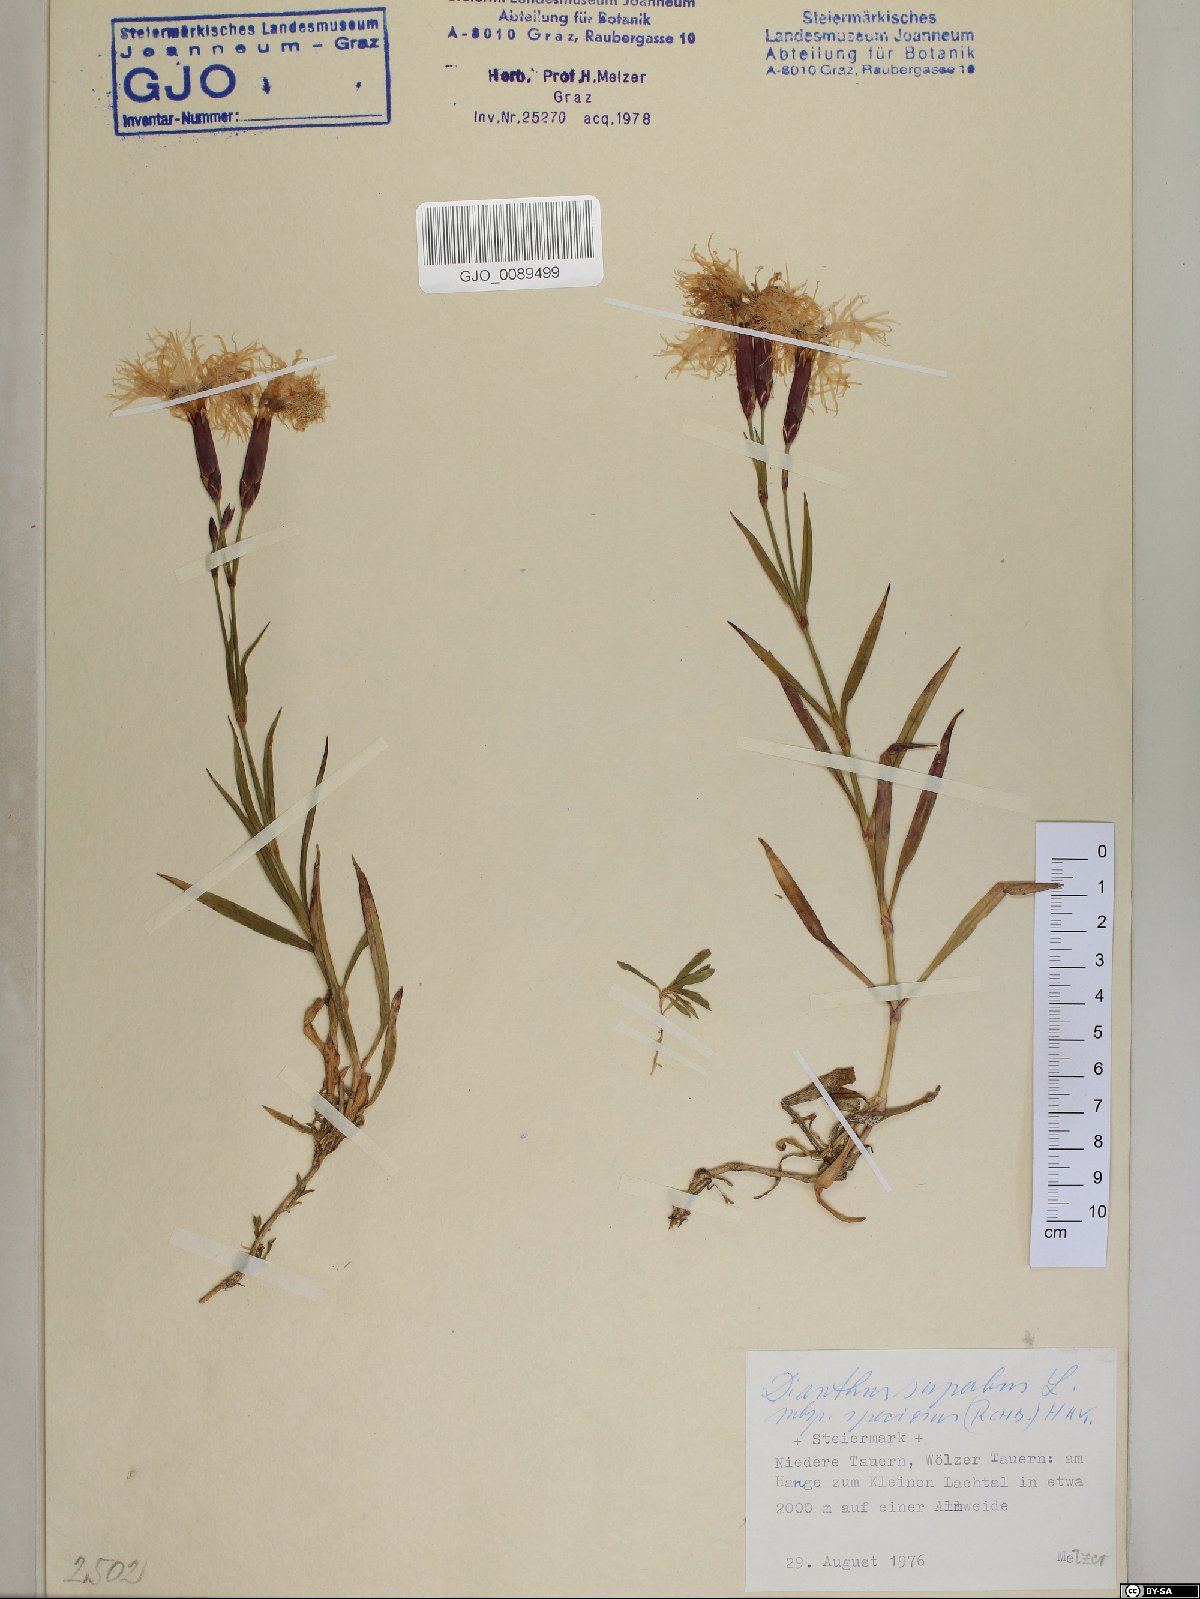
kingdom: Plantae
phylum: Tracheophyta
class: Magnoliopsida
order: Caryophyllales
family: Caryophyllaceae
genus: Dianthus
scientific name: Dianthus superbus
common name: Fringed pink
